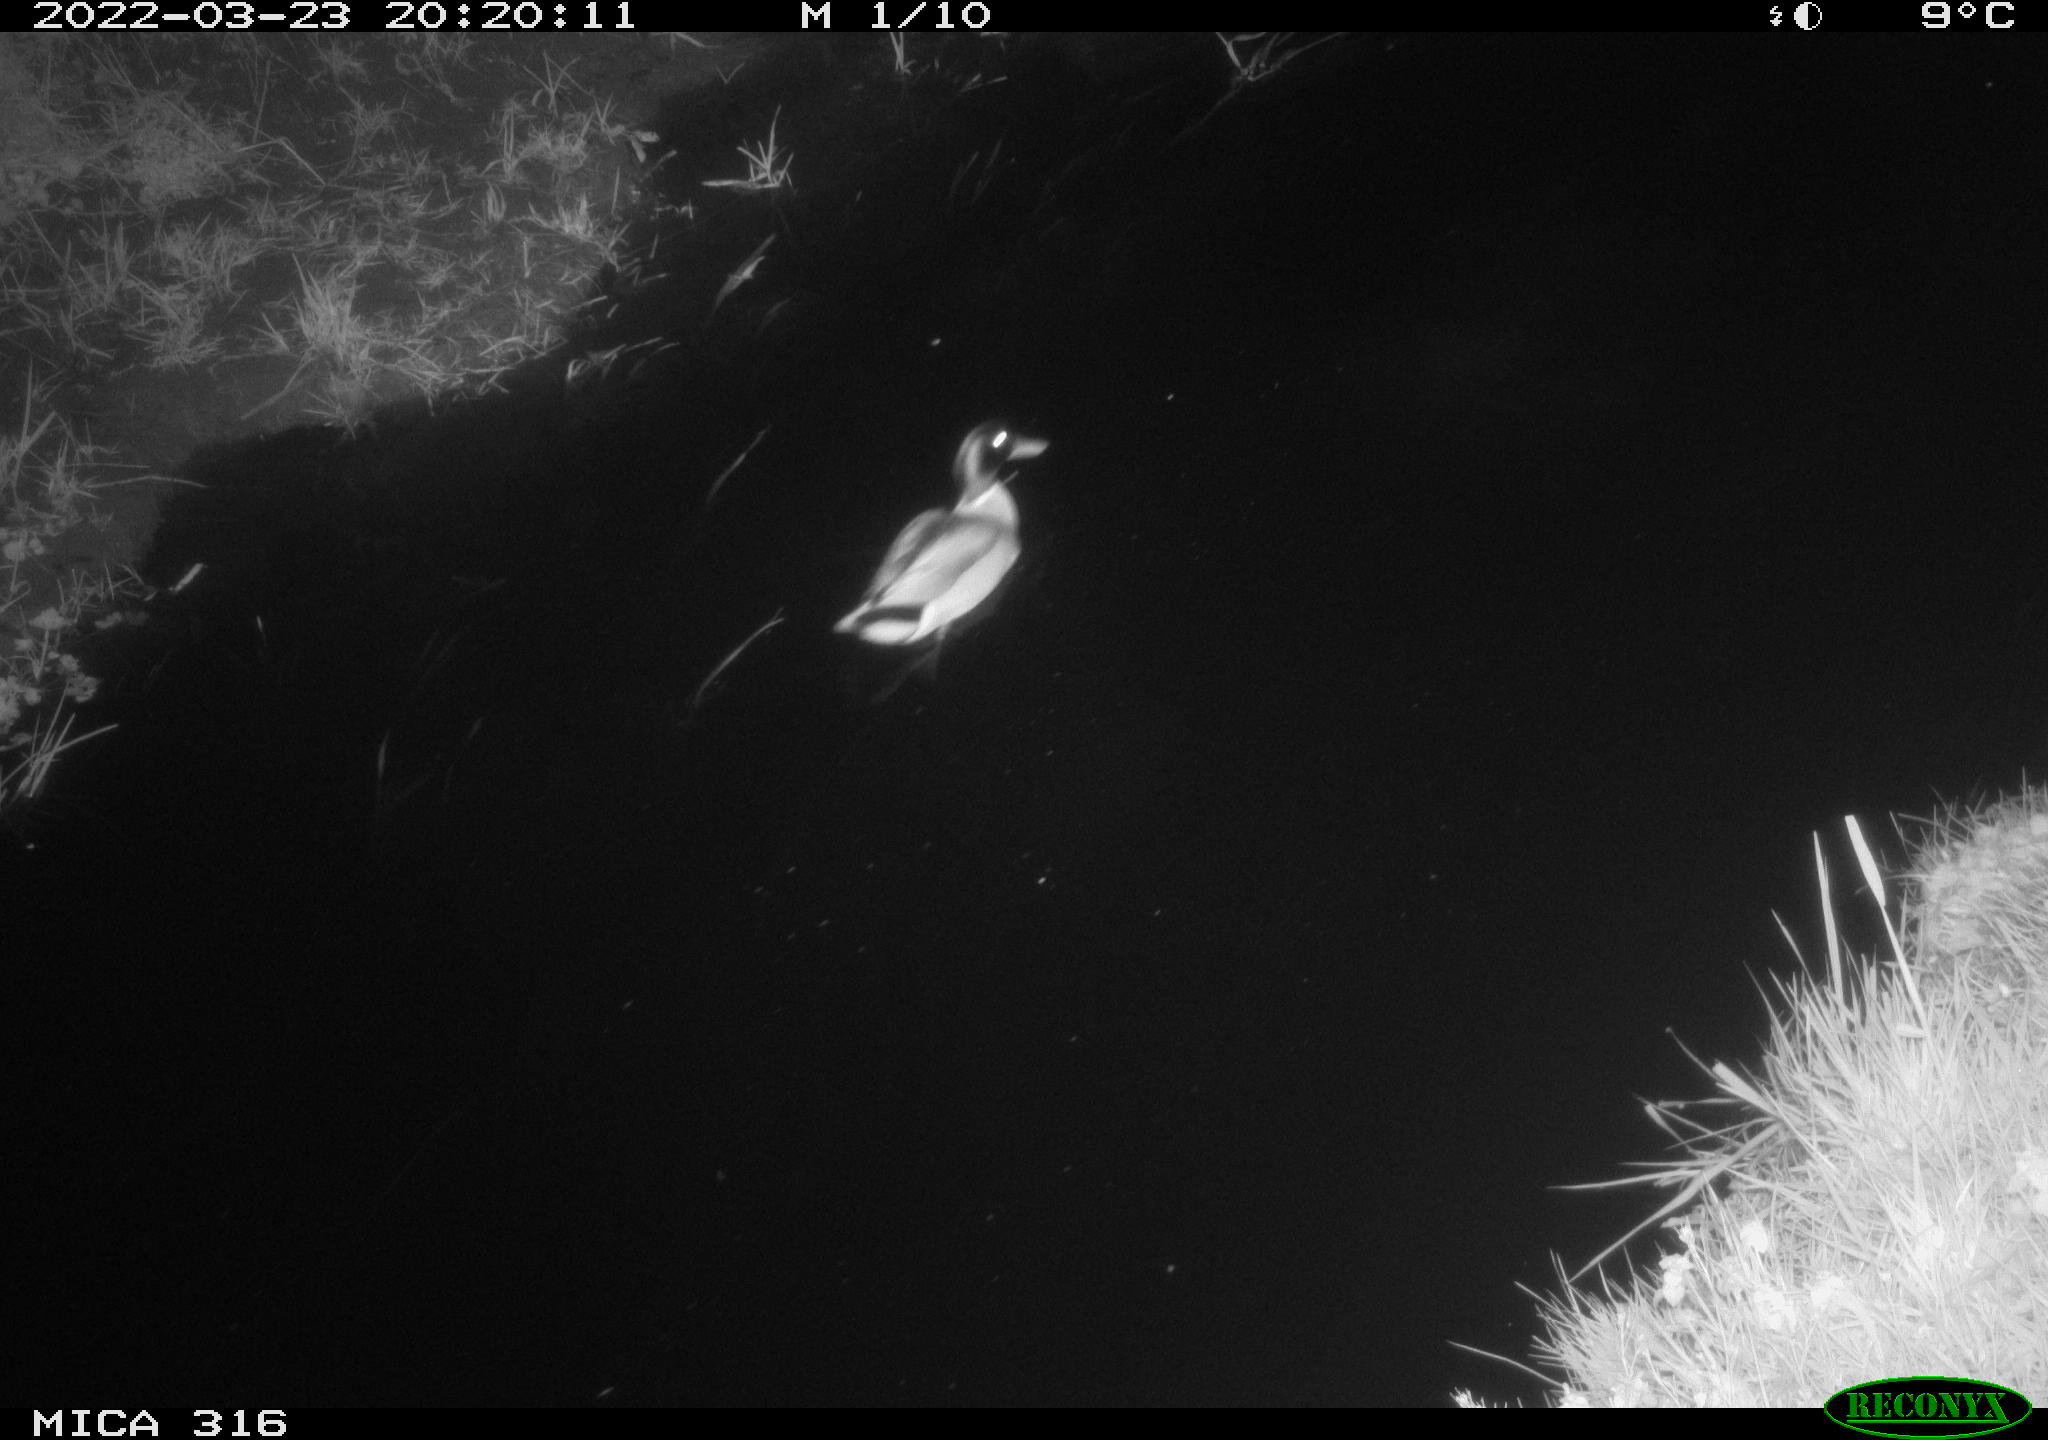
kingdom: Animalia
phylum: Chordata
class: Aves
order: Anseriformes
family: Anatidae
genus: Anas
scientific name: Anas platyrhynchos
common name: Mallard
